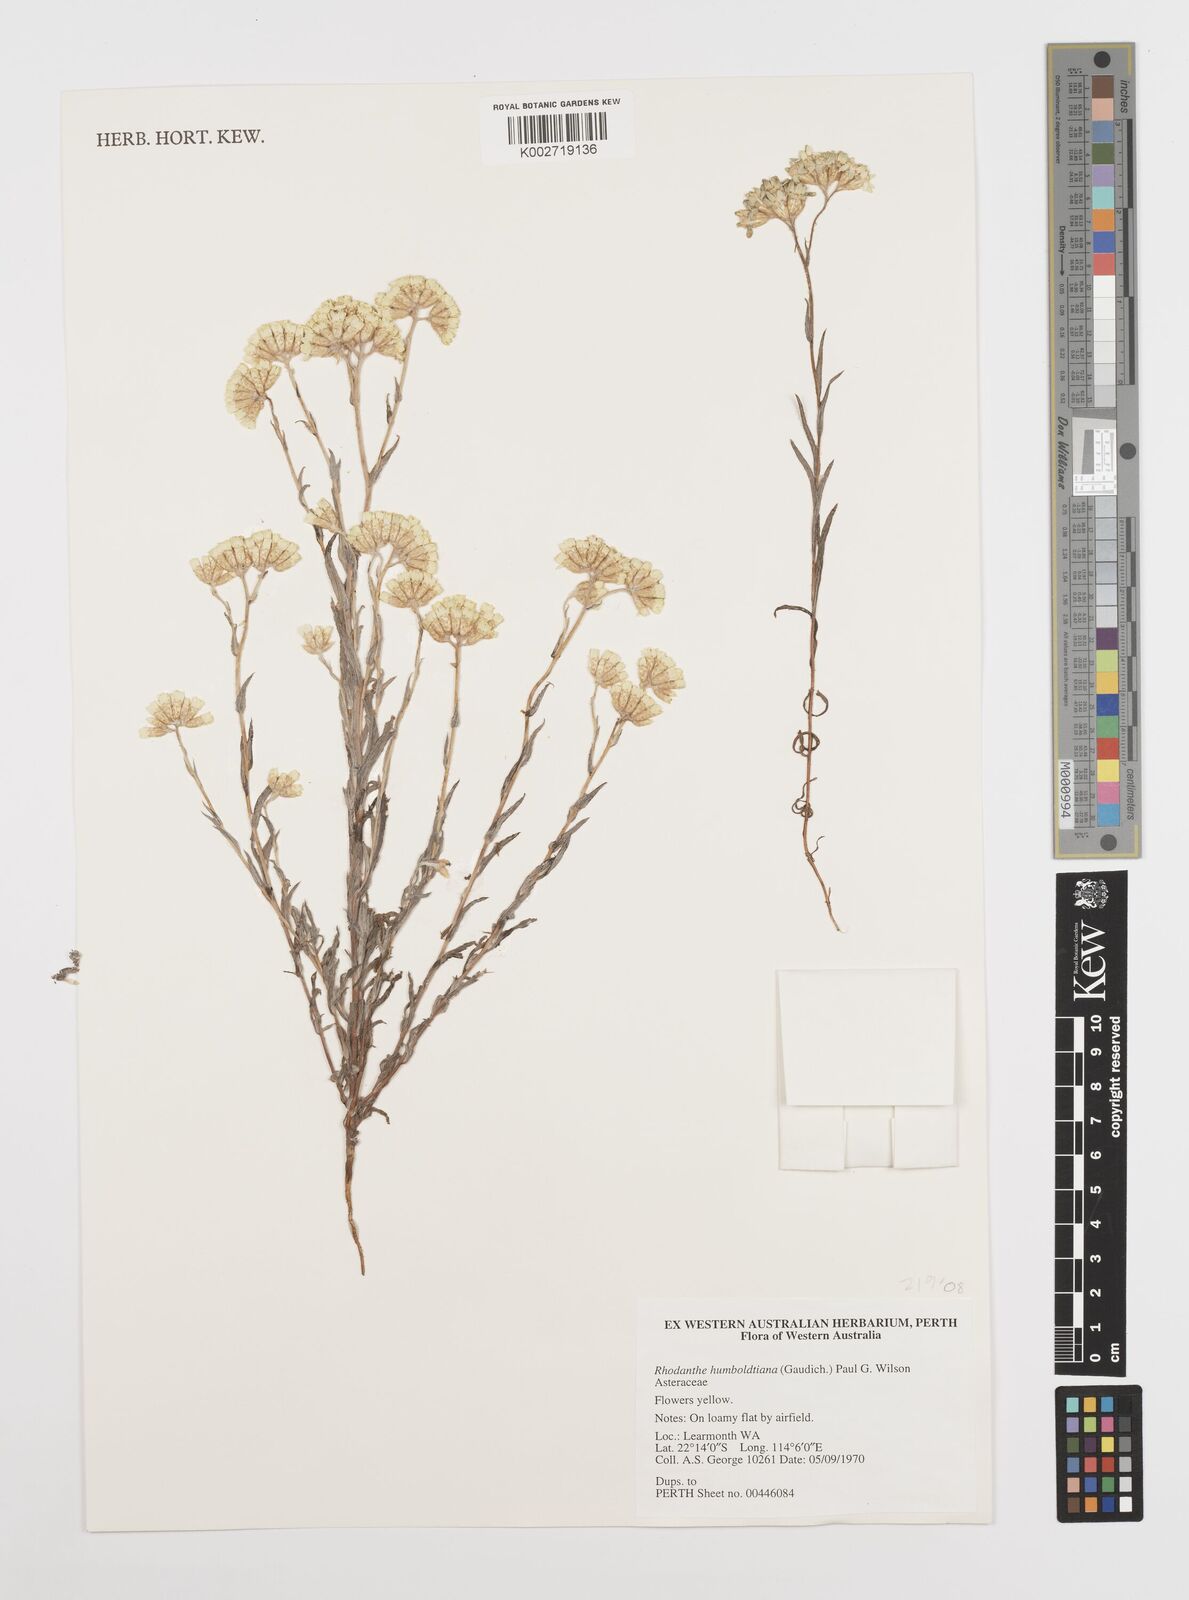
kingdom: Plantae
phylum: Tracheophyta
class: Magnoliopsida
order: Asterales
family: Asteraceae
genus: Rhodanthe
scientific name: Rhodanthe humboldtiana
